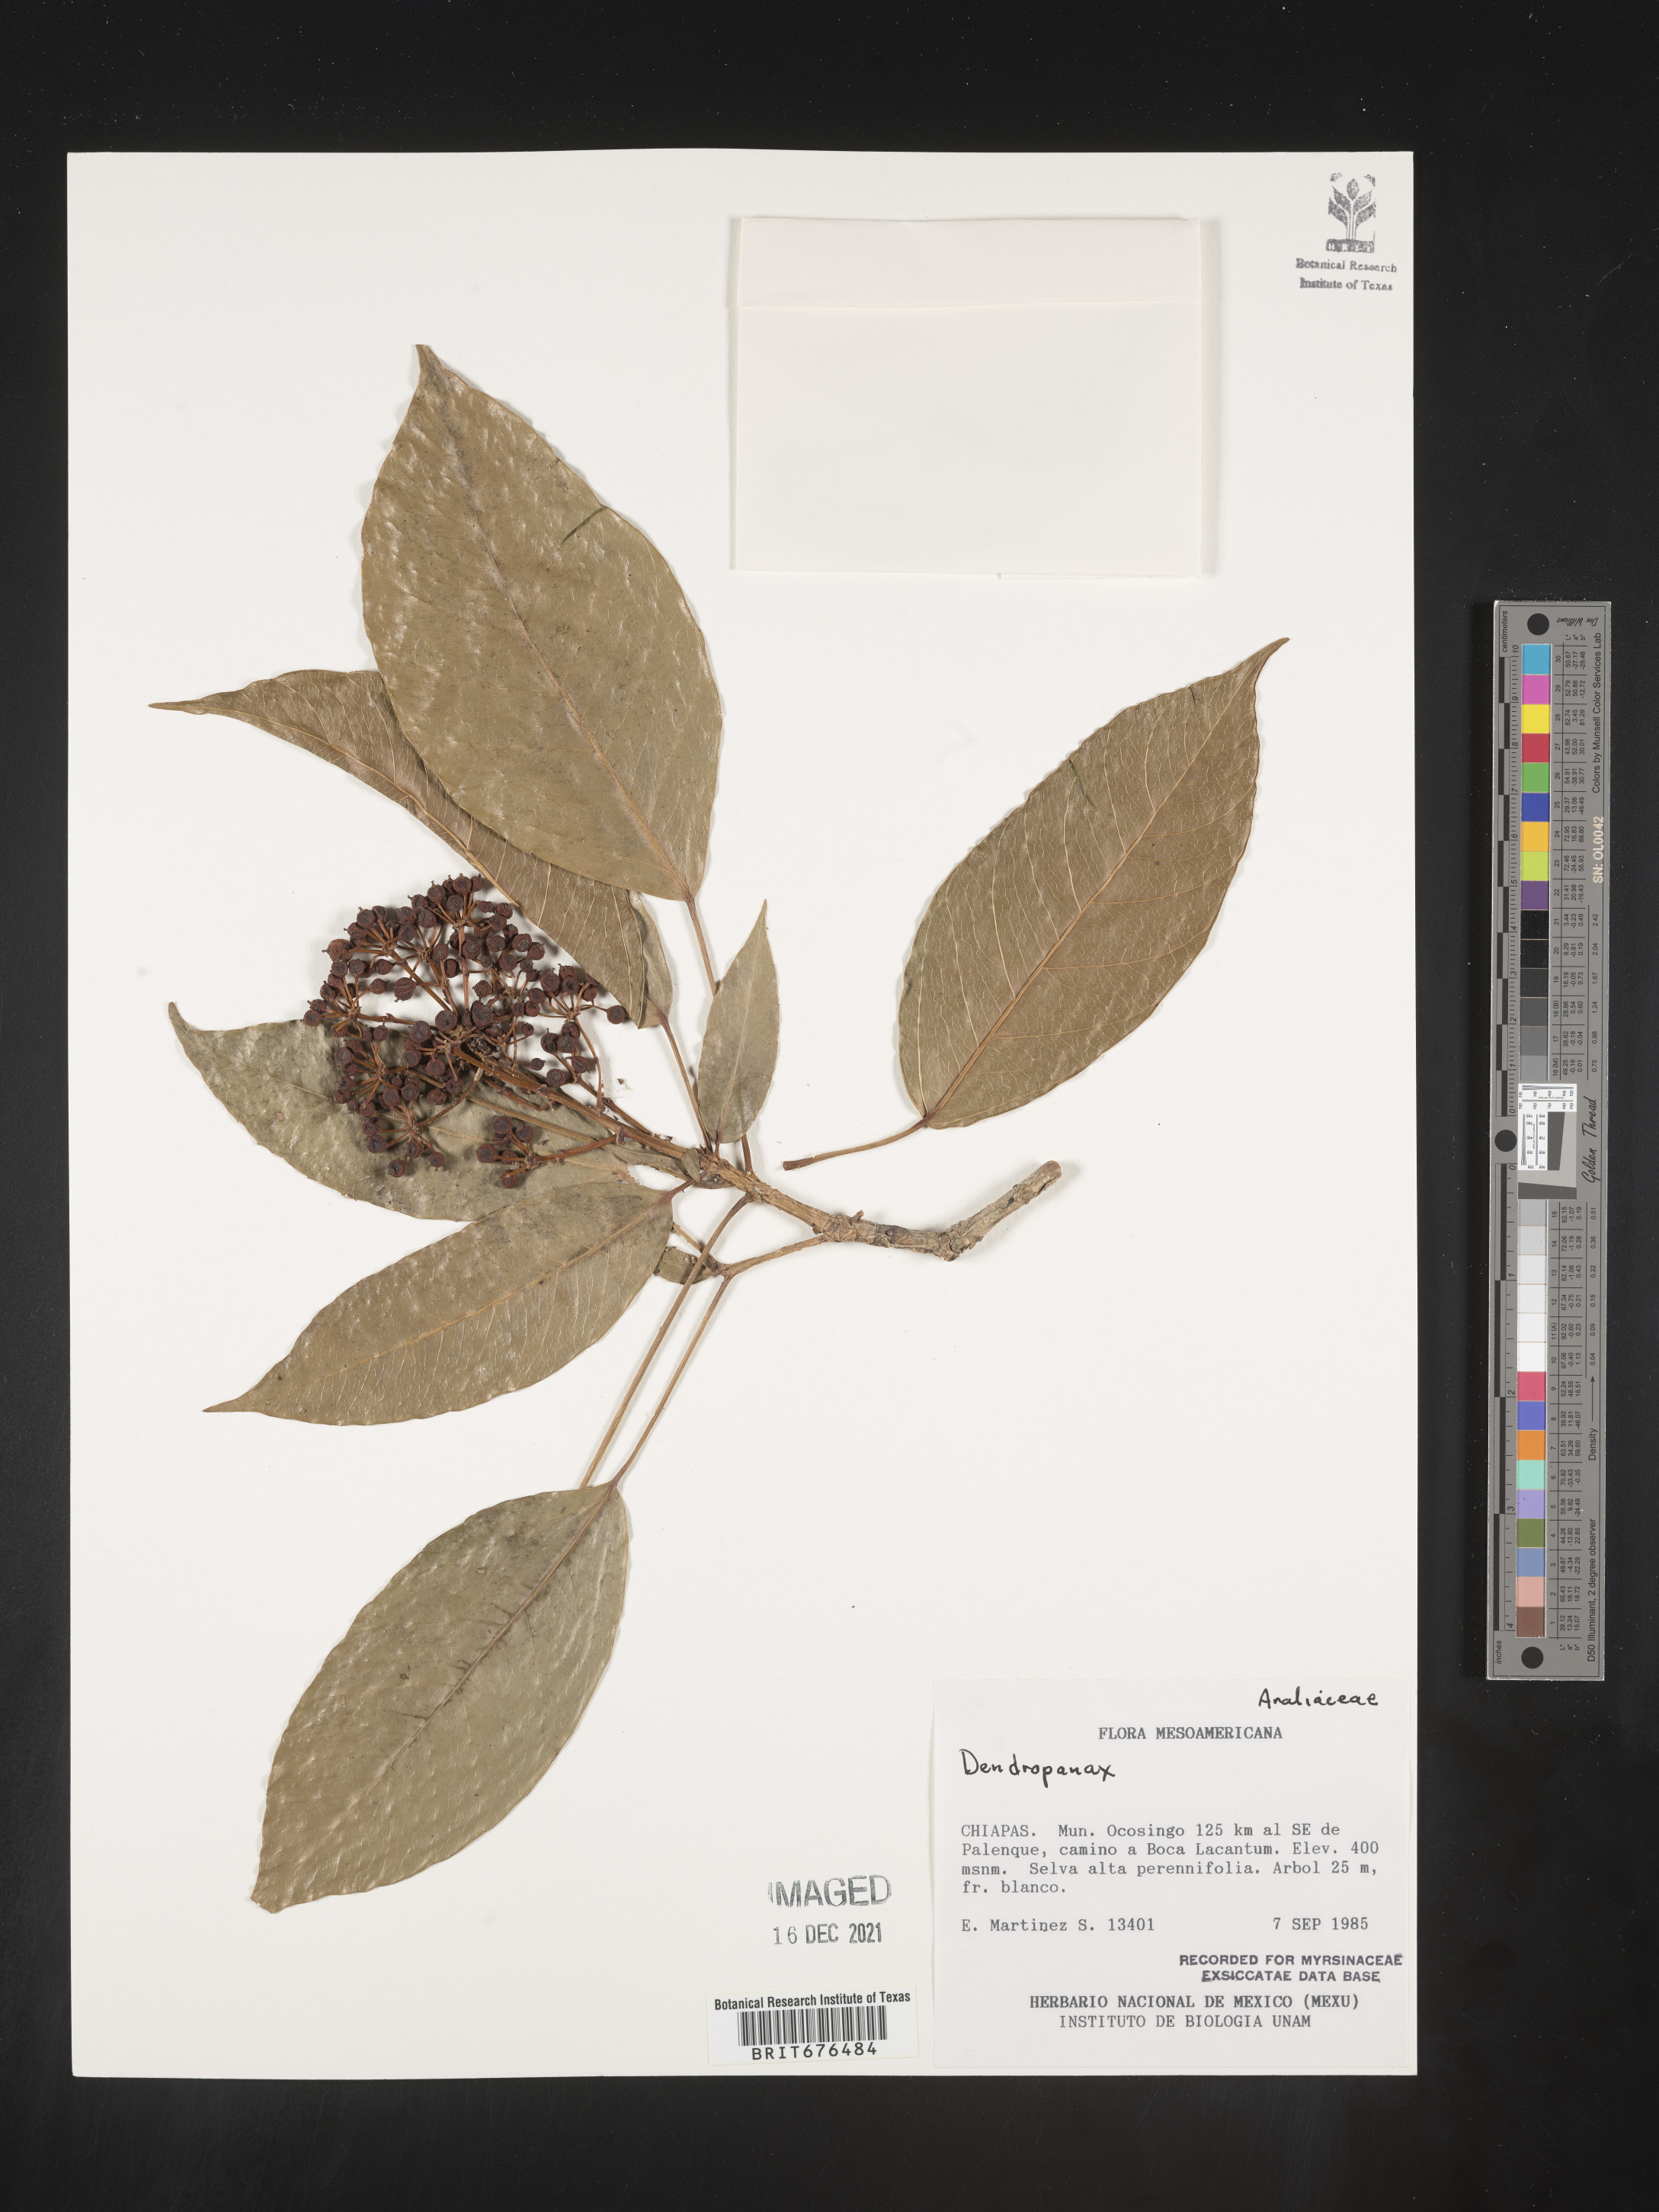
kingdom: Plantae
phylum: Tracheophyta
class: Magnoliopsida
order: Apiales
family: Araliaceae
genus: Dendropanax
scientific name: Dendropanax
